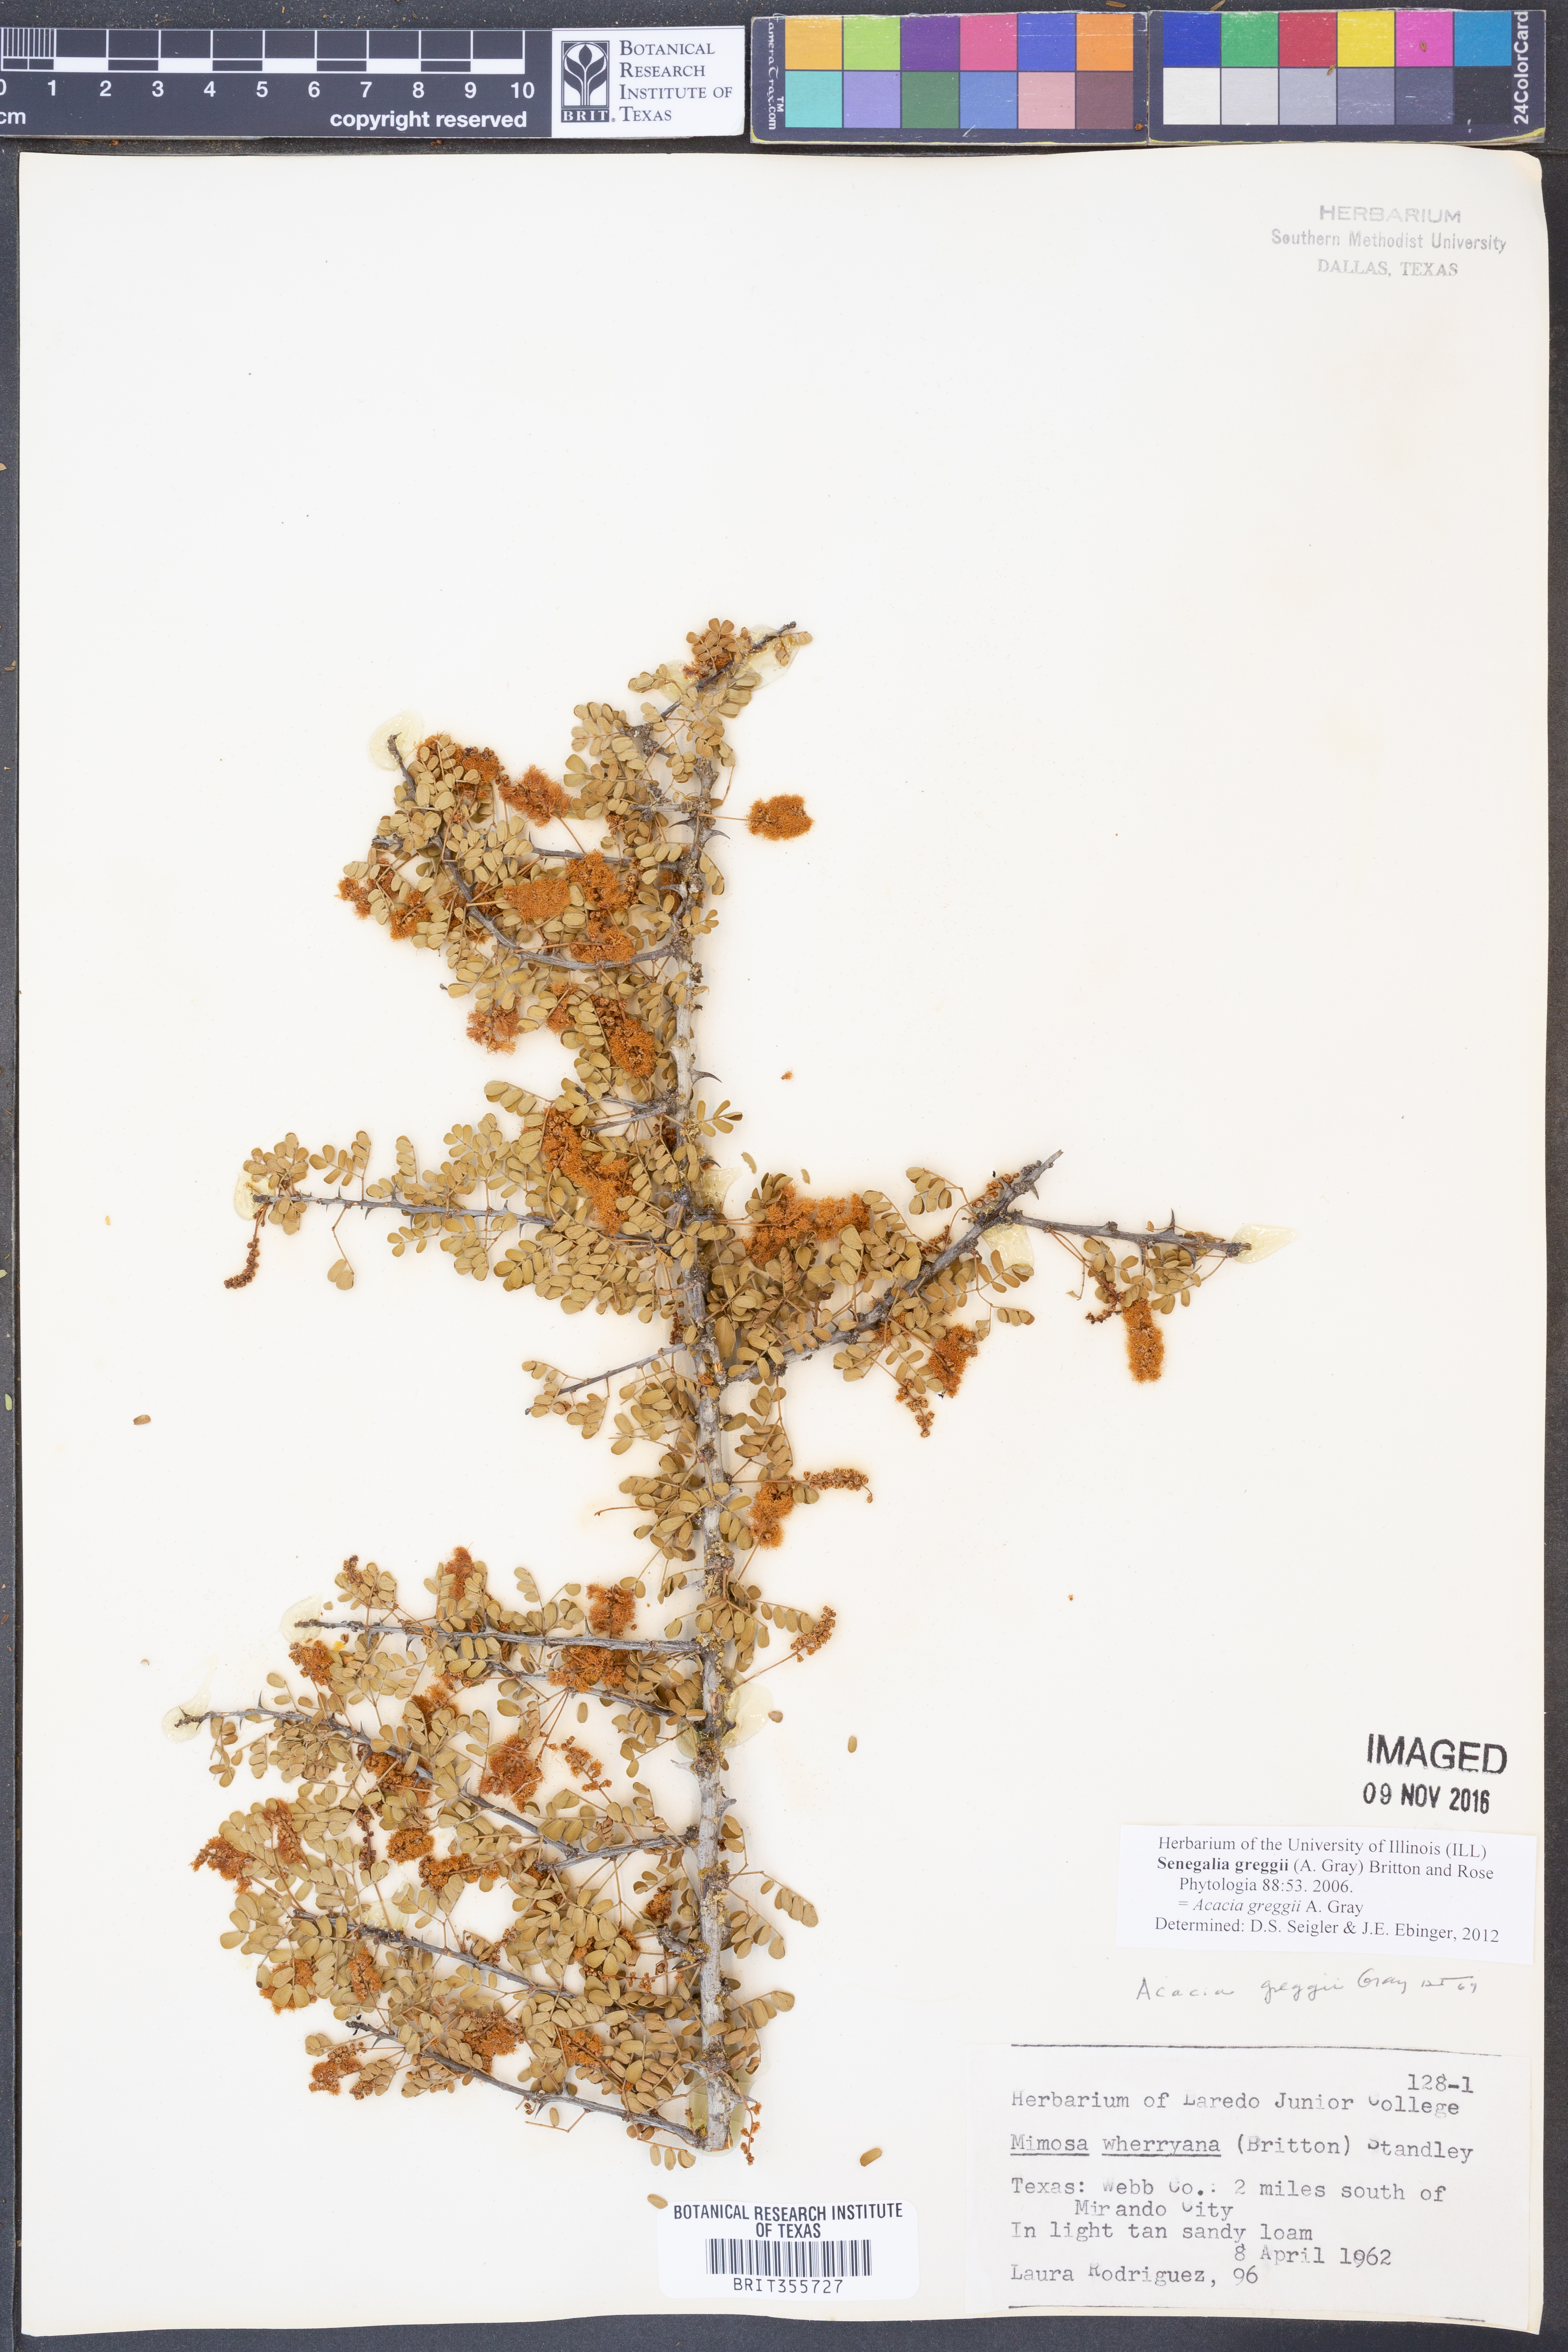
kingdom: Plantae
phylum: Tracheophyta
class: Magnoliopsida
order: Fabales
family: Fabaceae
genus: Senegalia
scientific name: Senegalia greggii
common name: Texas-mimosa
